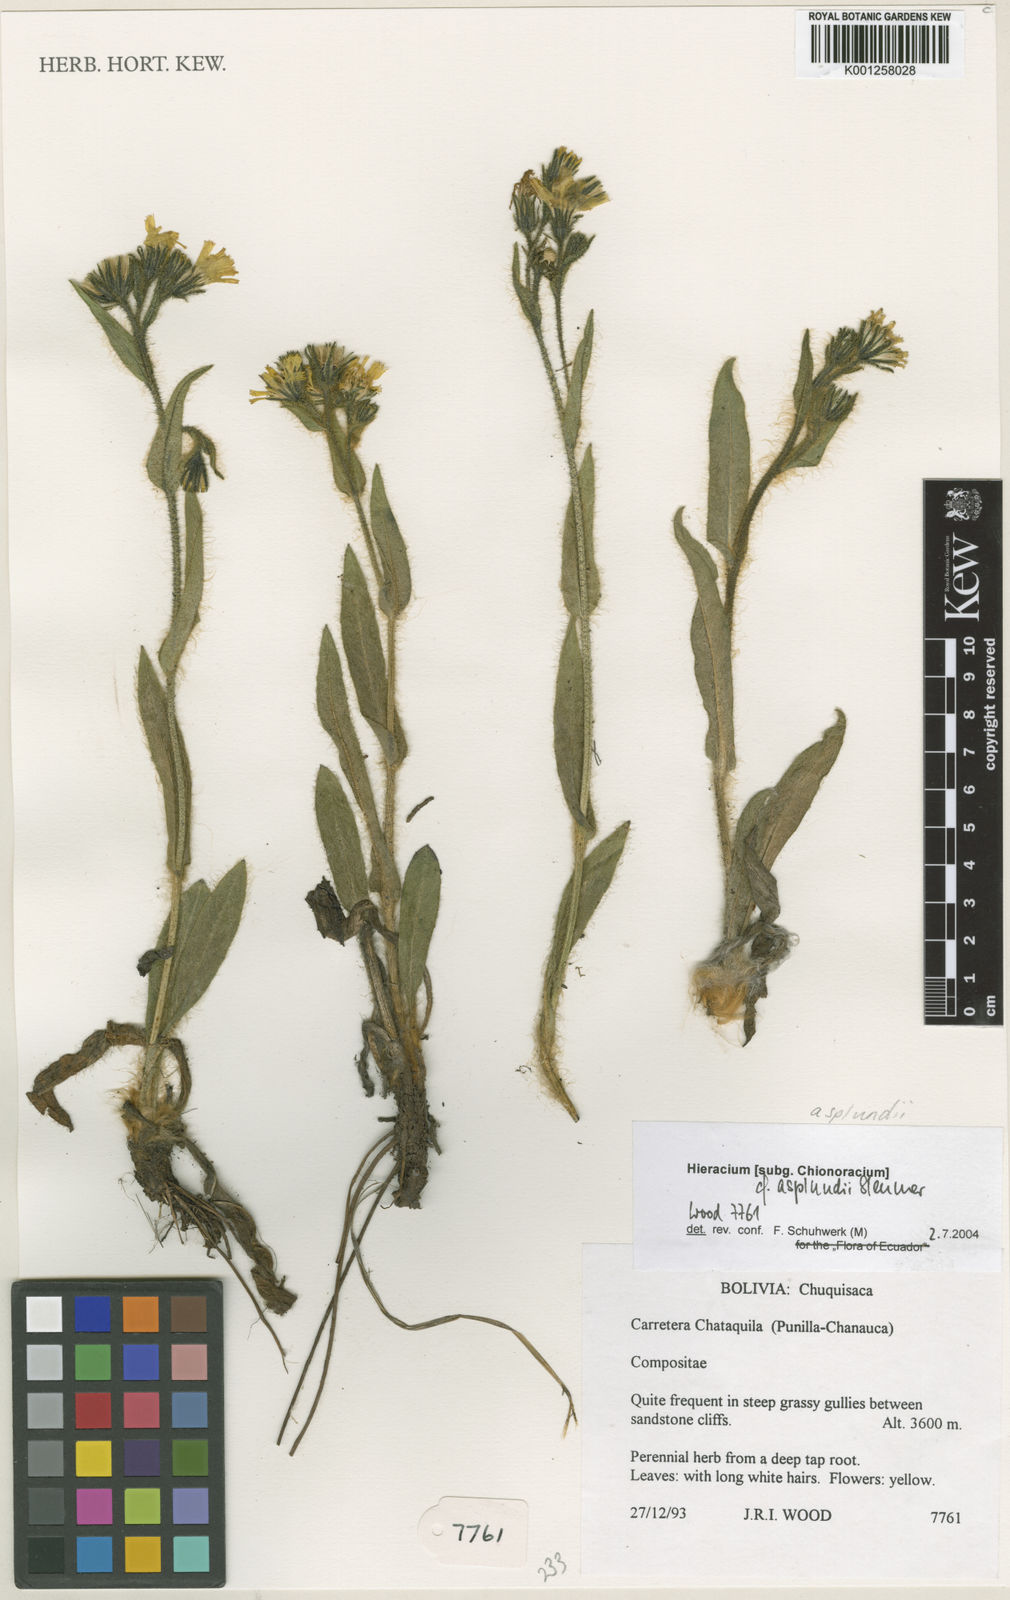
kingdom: Plantae
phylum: Tracheophyta
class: Magnoliopsida
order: Asterales
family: Asteraceae
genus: Hieracium
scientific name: Hieracium asplundii
